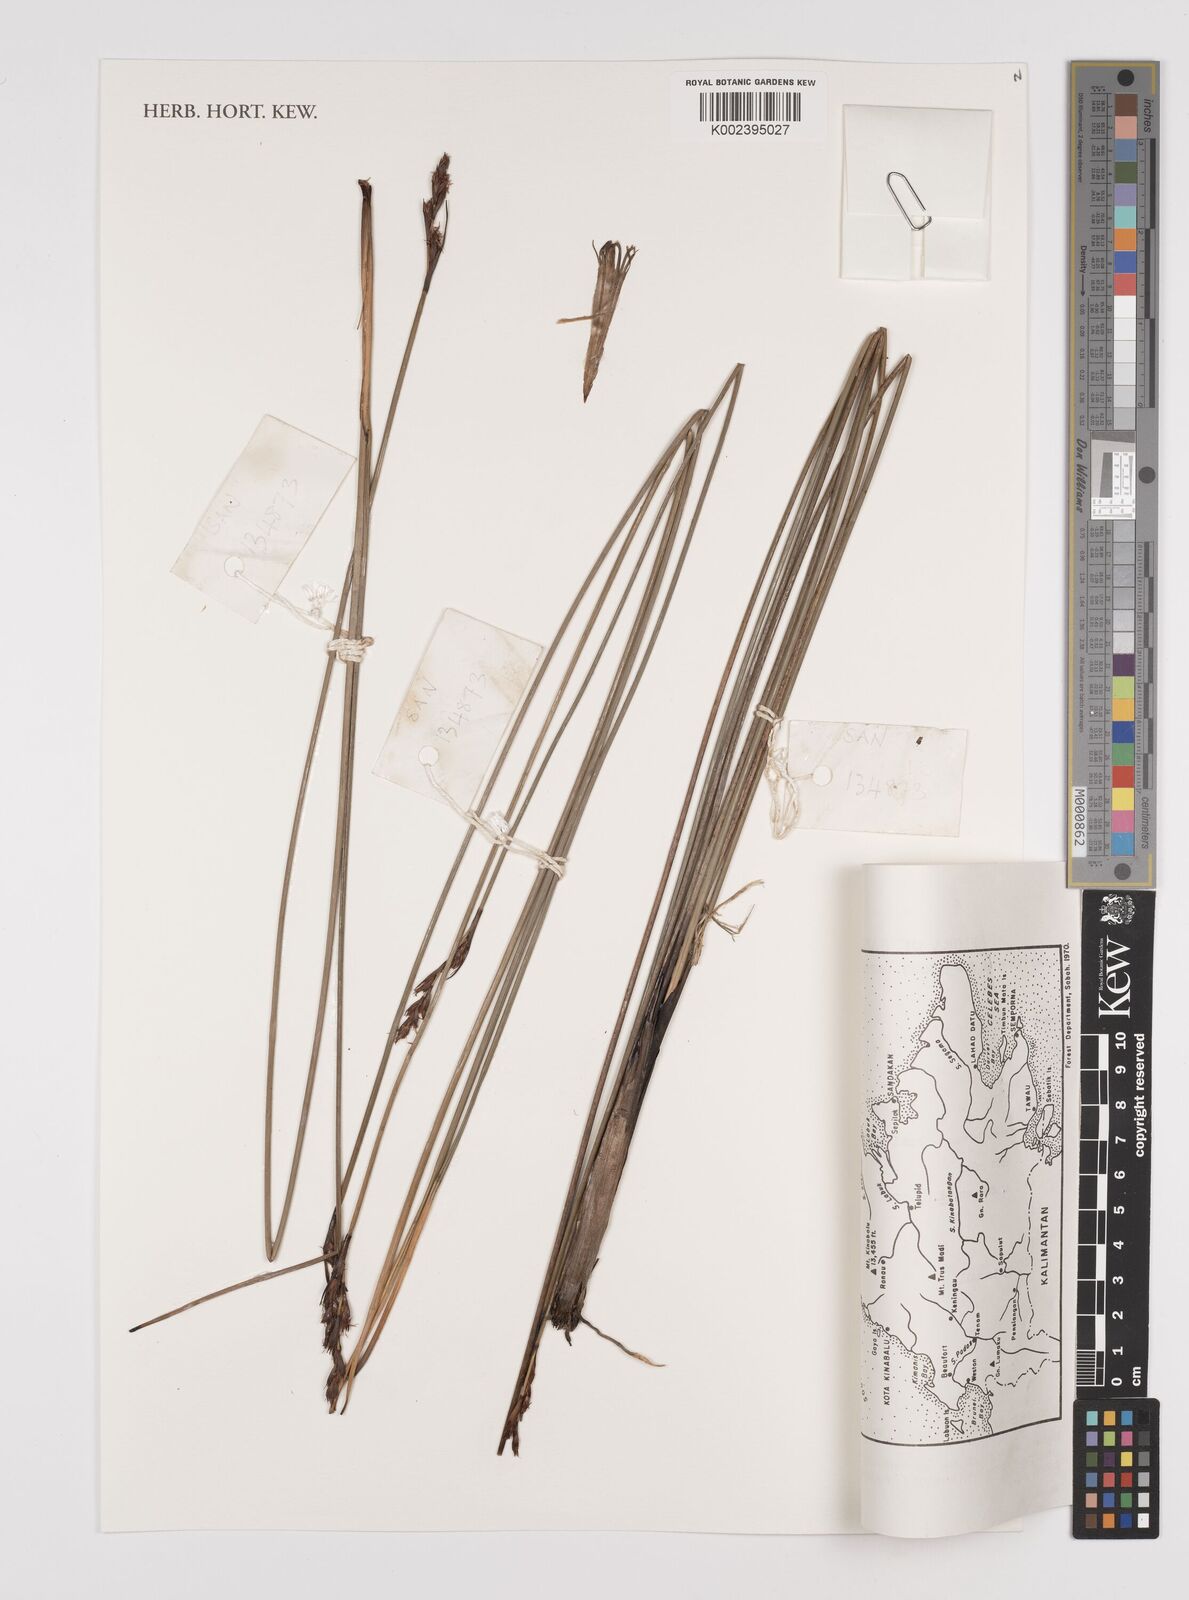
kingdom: Plantae
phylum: Tracheophyta
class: Liliopsida
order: Poales
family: Cyperaceae
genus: Machaerina
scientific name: Machaerina
